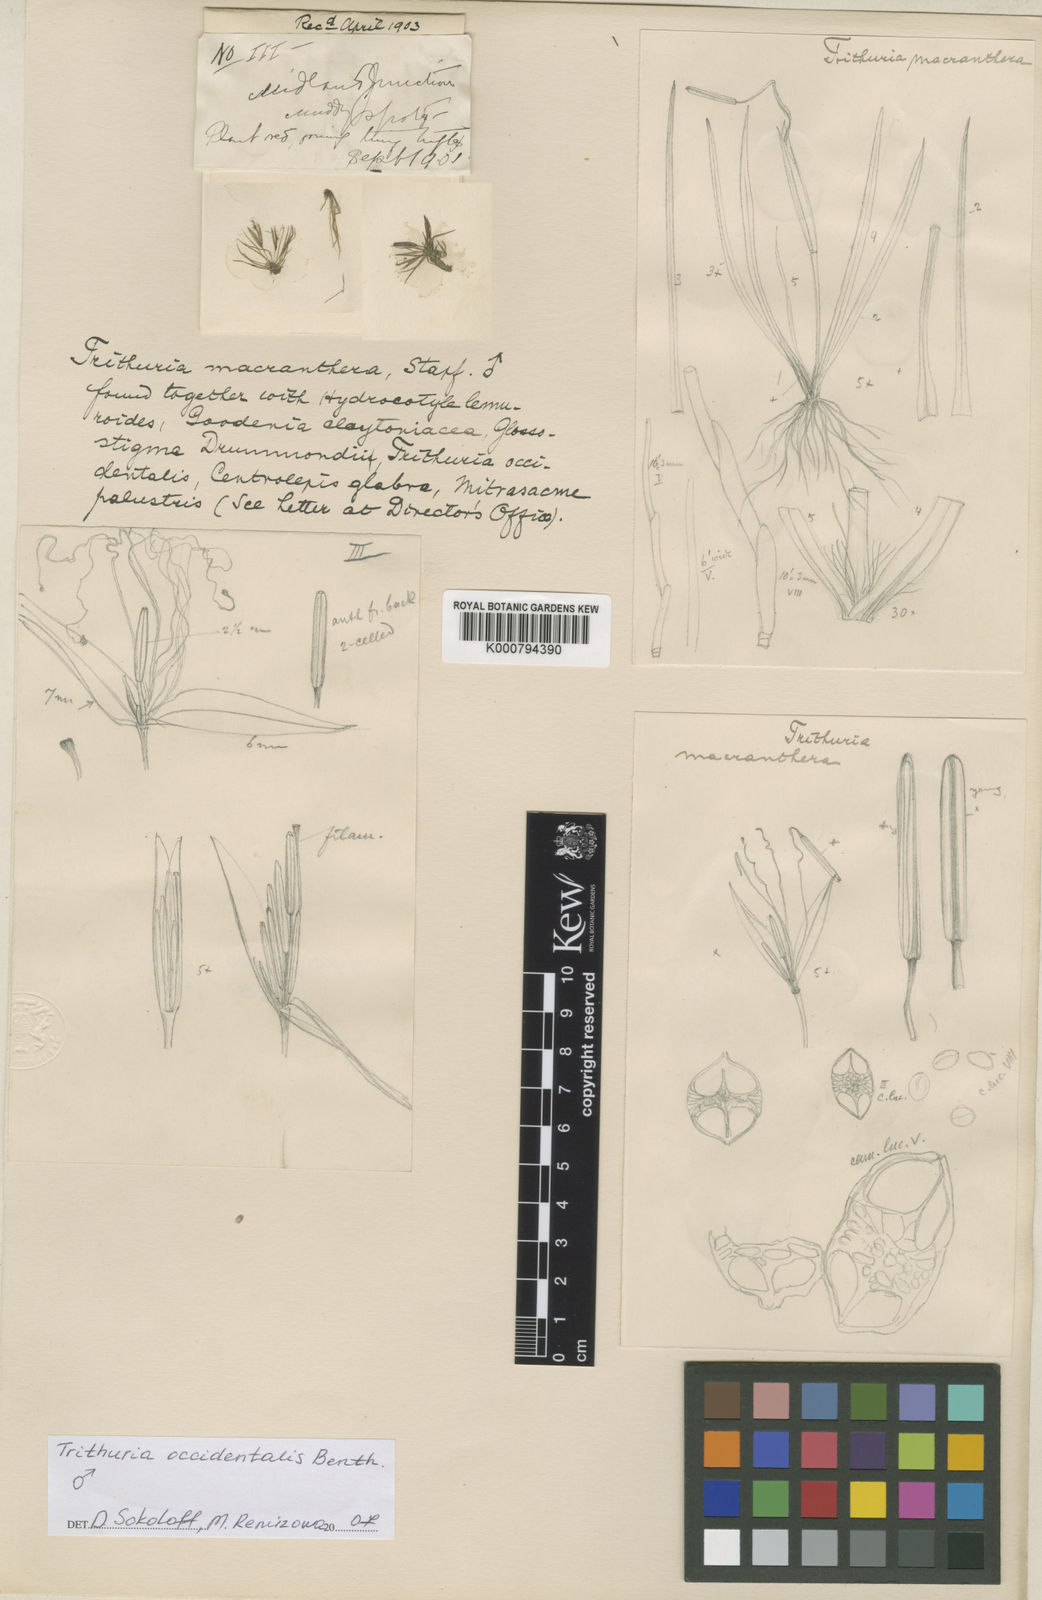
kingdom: Plantae
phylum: Tracheophyta
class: Magnoliopsida
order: Nymphaeales
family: Hydatellaceae
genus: Trithuria
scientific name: Trithuria
